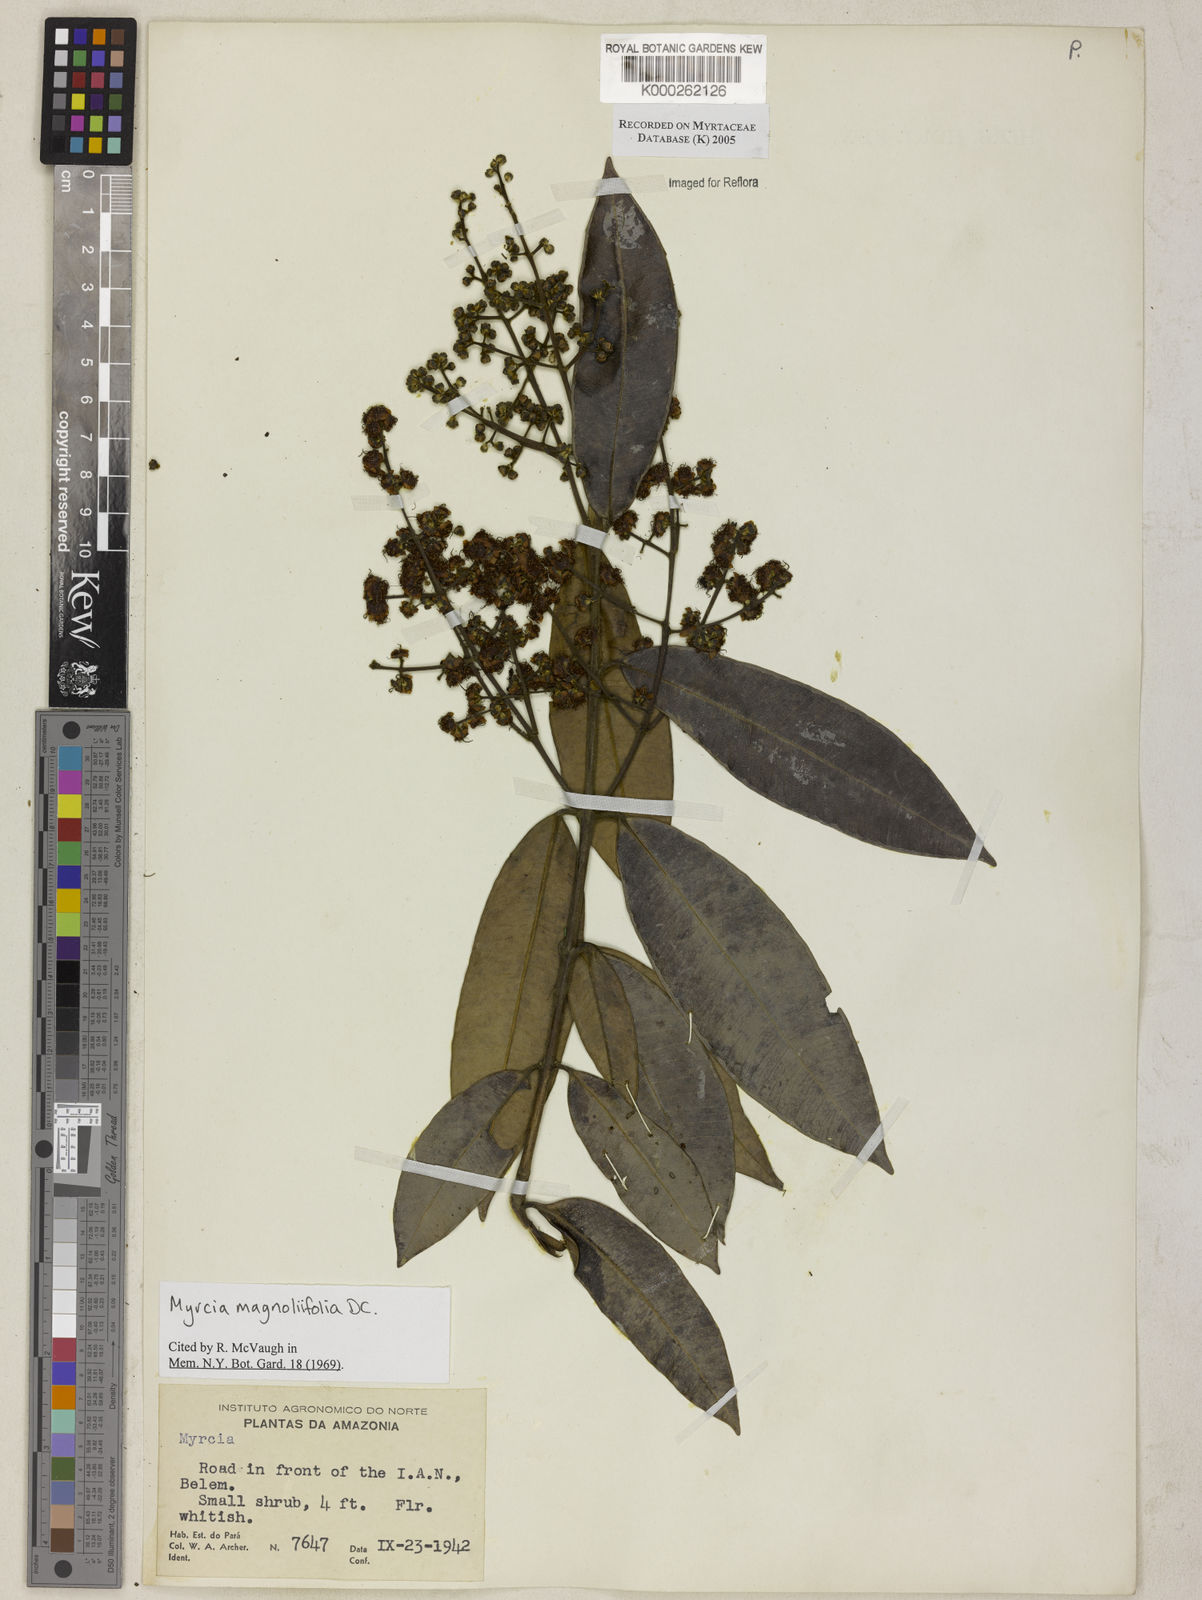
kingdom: Plantae
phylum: Tracheophyta
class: Magnoliopsida
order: Myrtales
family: Myrtaceae
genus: Myrcia
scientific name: Myrcia splendens
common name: Surinam cherry
